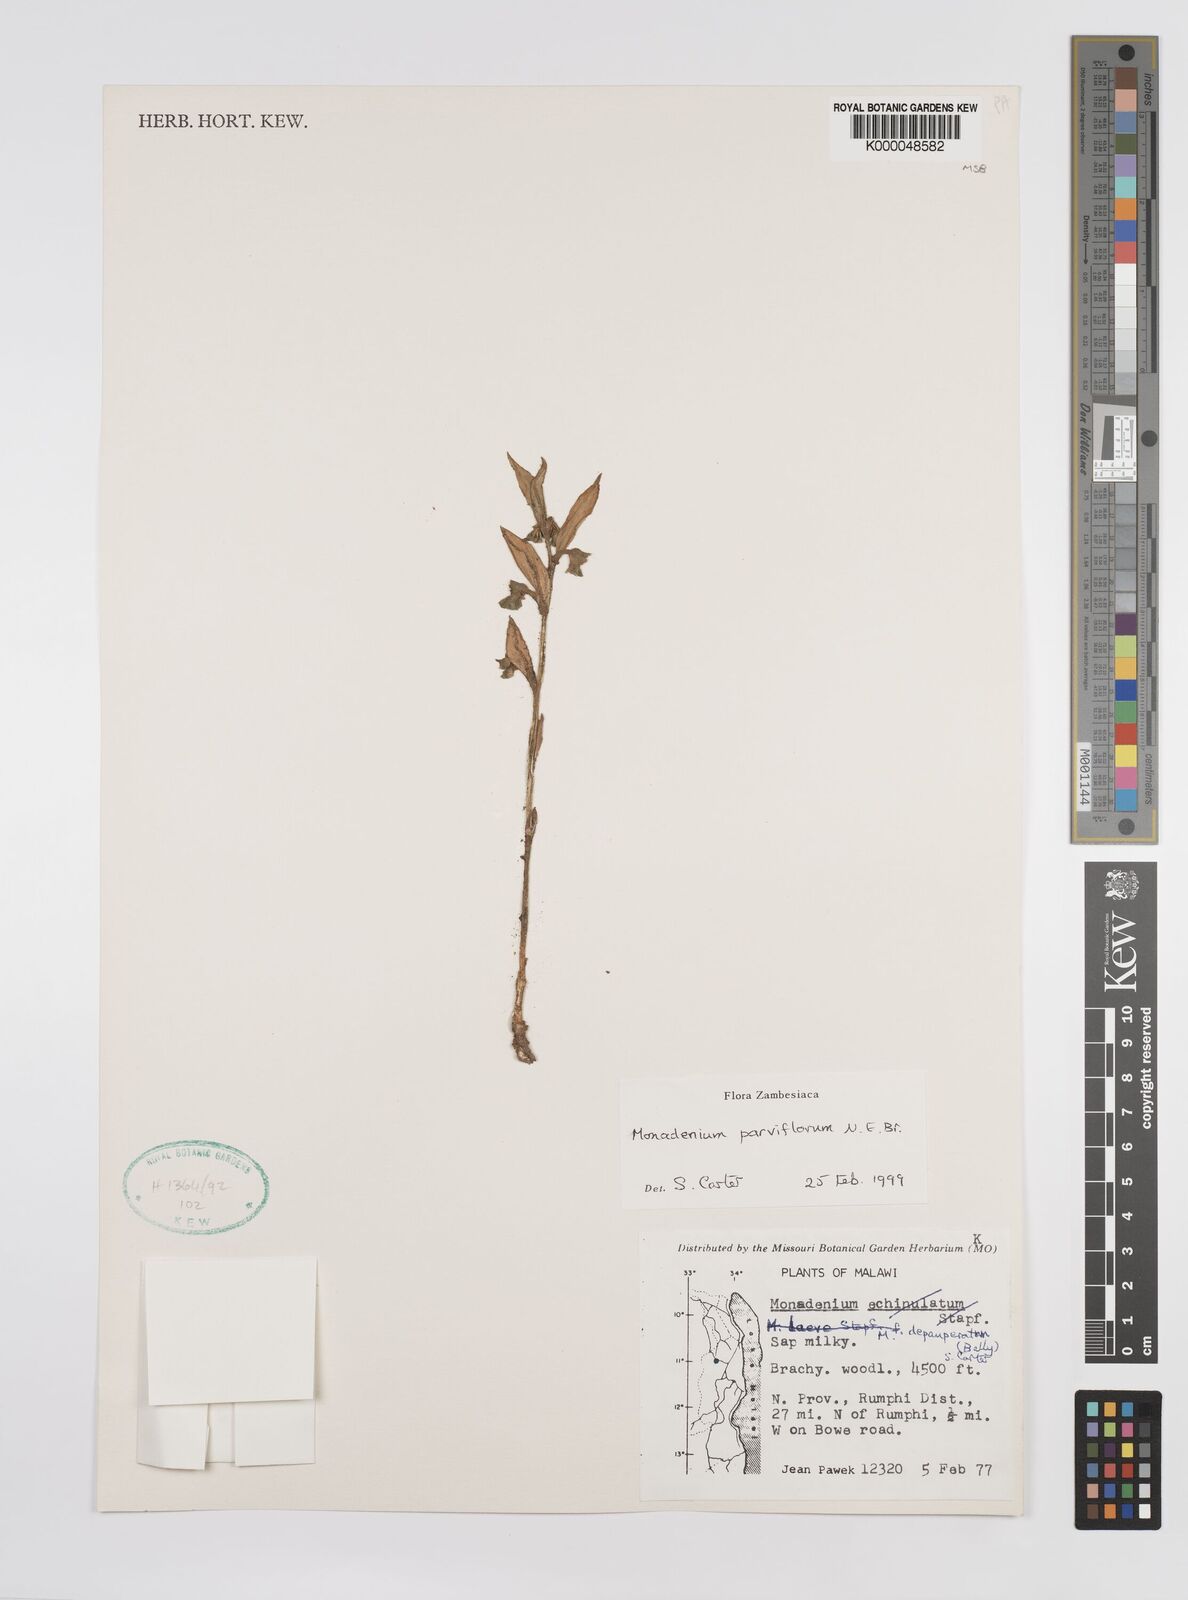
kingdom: Plantae
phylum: Tracheophyta
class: Magnoliopsida
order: Malpighiales
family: Euphorbiaceae
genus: Euphorbia
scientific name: Euphorbia neoparviflora
